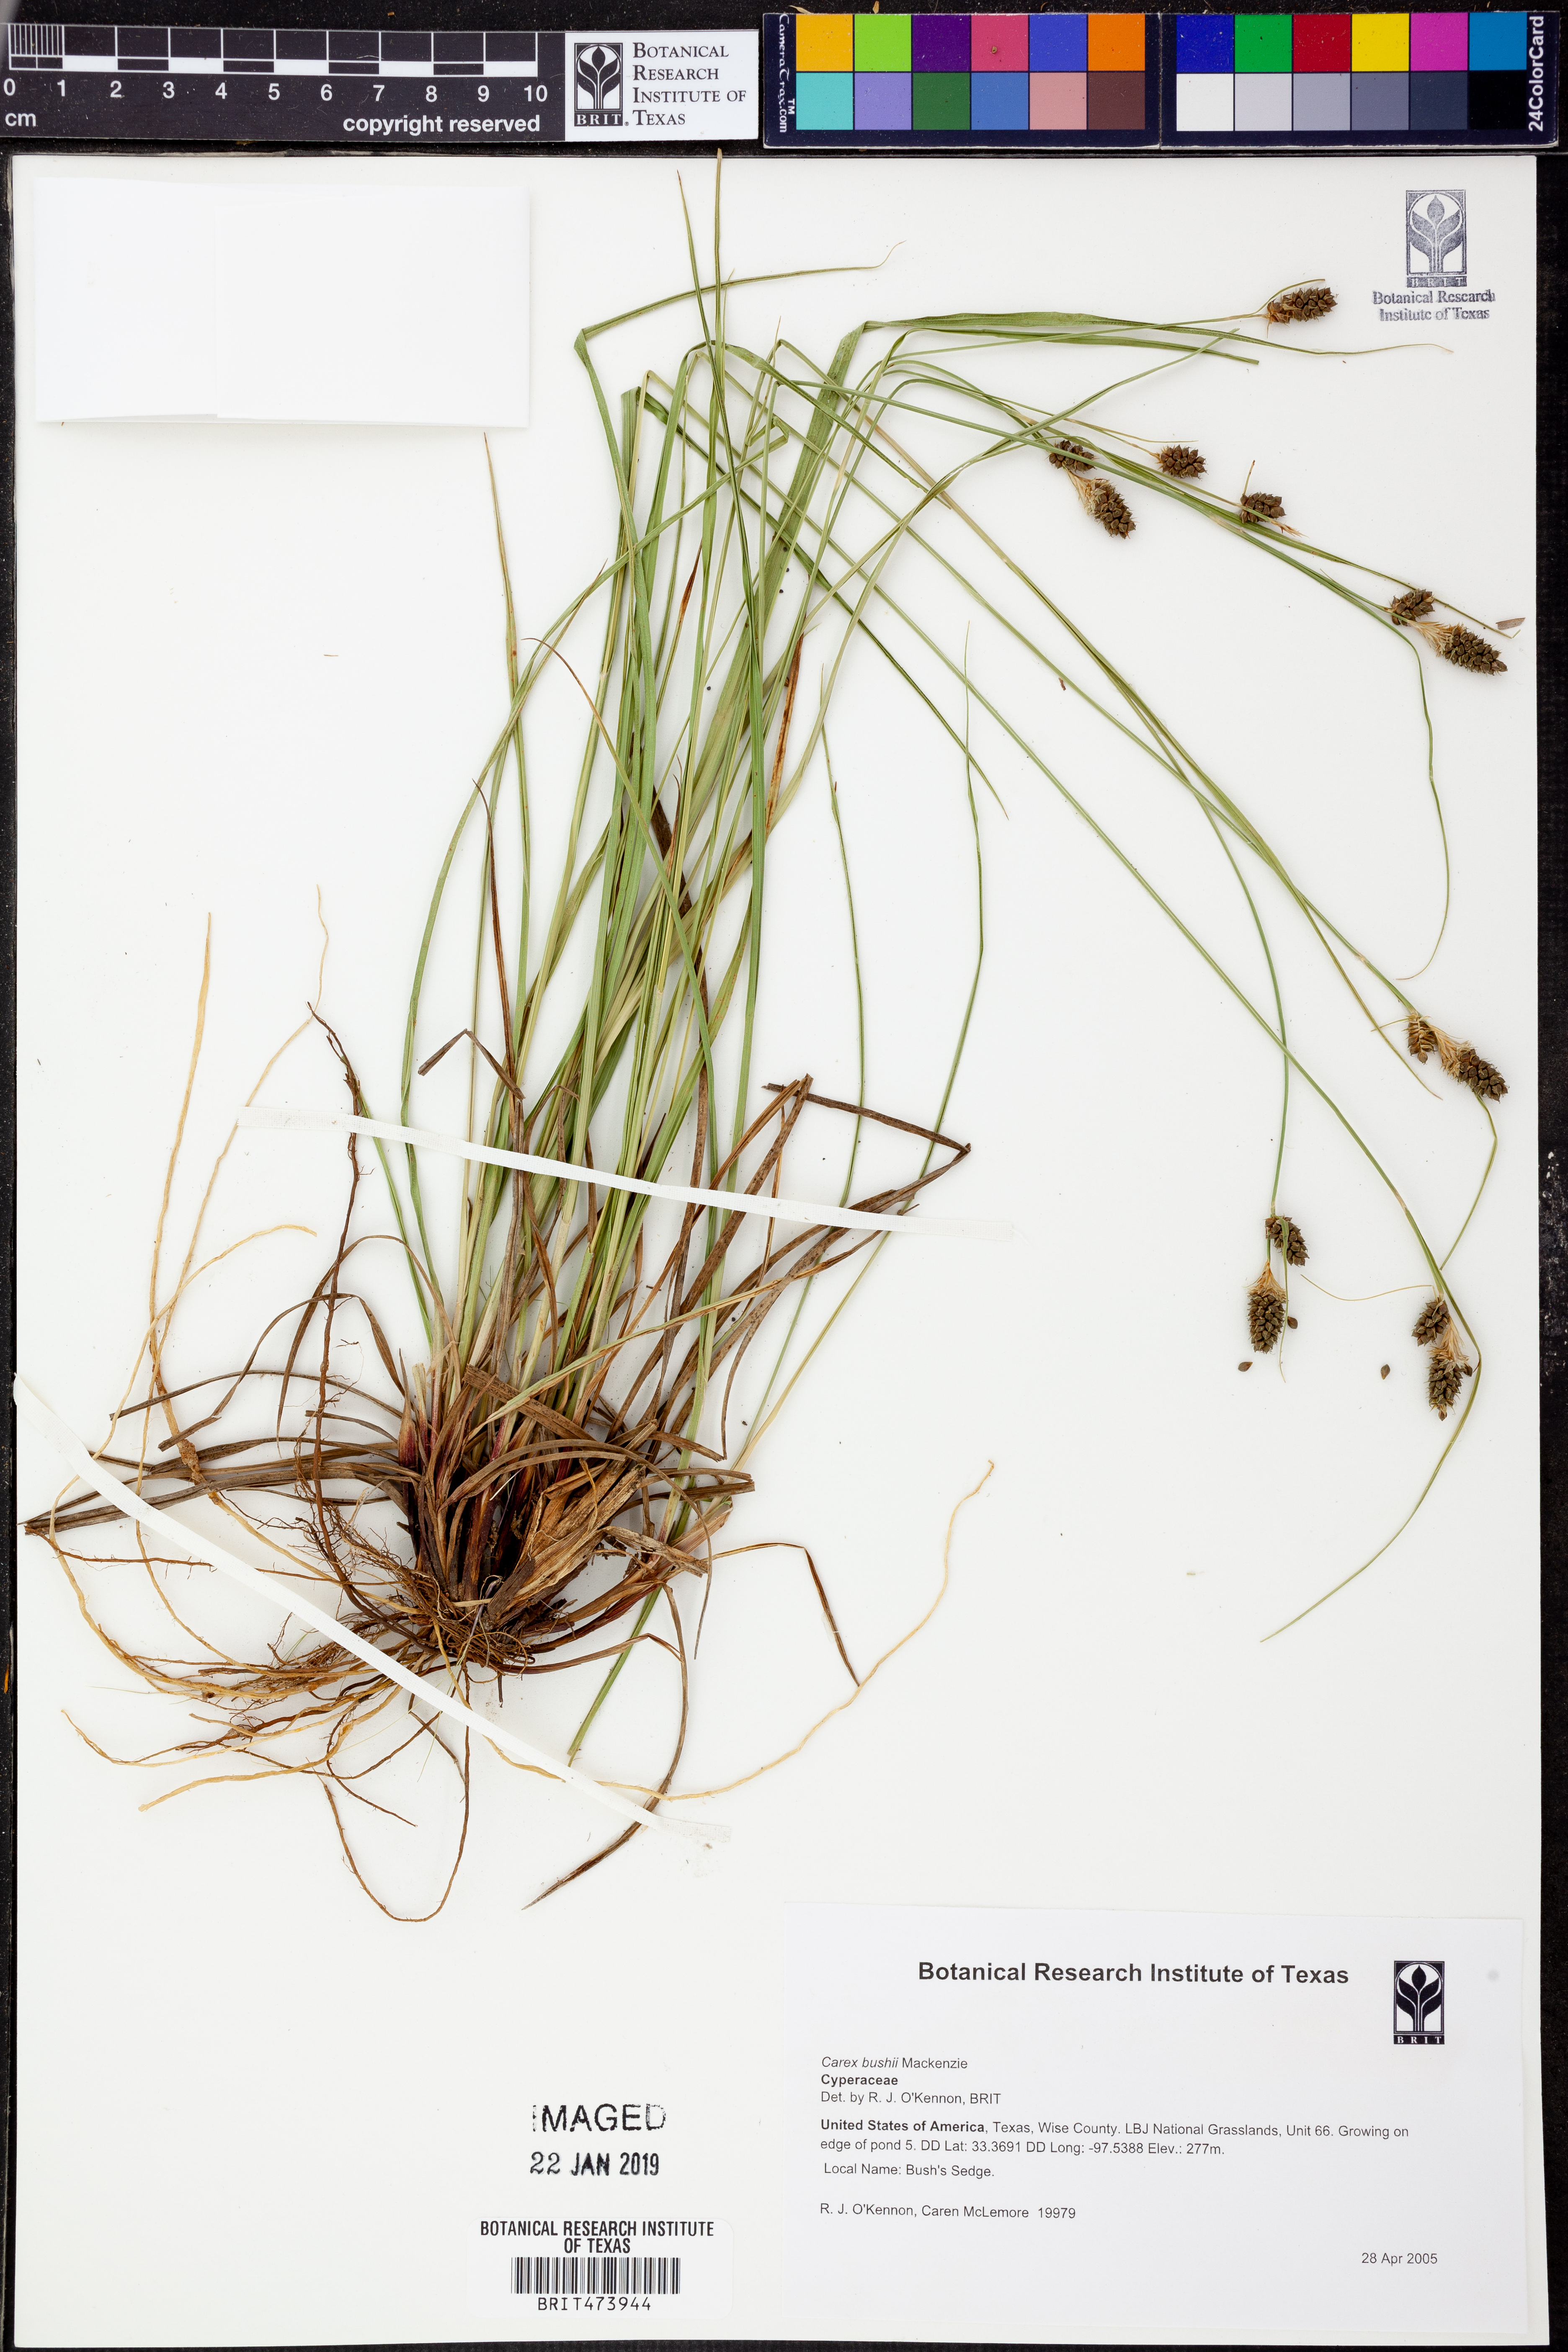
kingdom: Plantae
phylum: Tracheophyta
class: Liliopsida
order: Poales
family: Cyperaceae
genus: Carex
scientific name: Carex bushii
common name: Bush's sedge
